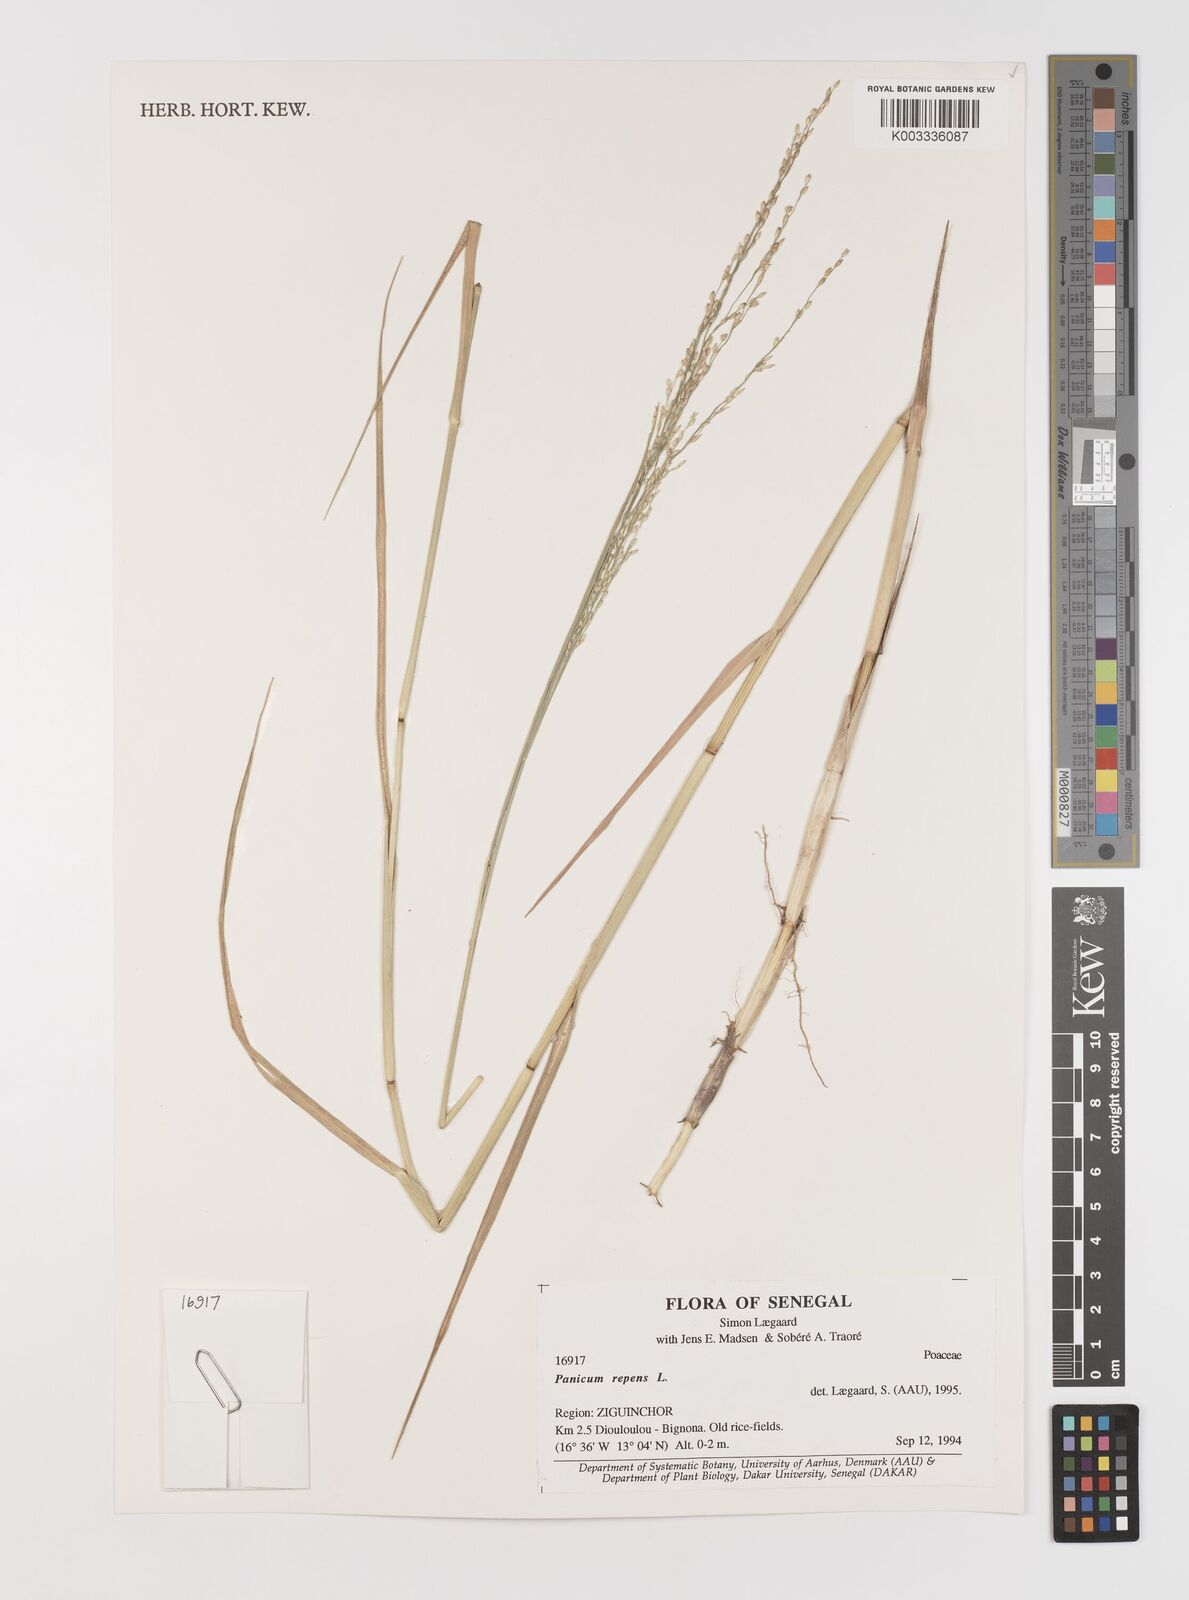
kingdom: Plantae
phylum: Tracheophyta
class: Liliopsida
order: Poales
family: Poaceae
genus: Panicum
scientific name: Panicum repens
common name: Torpedo grass
